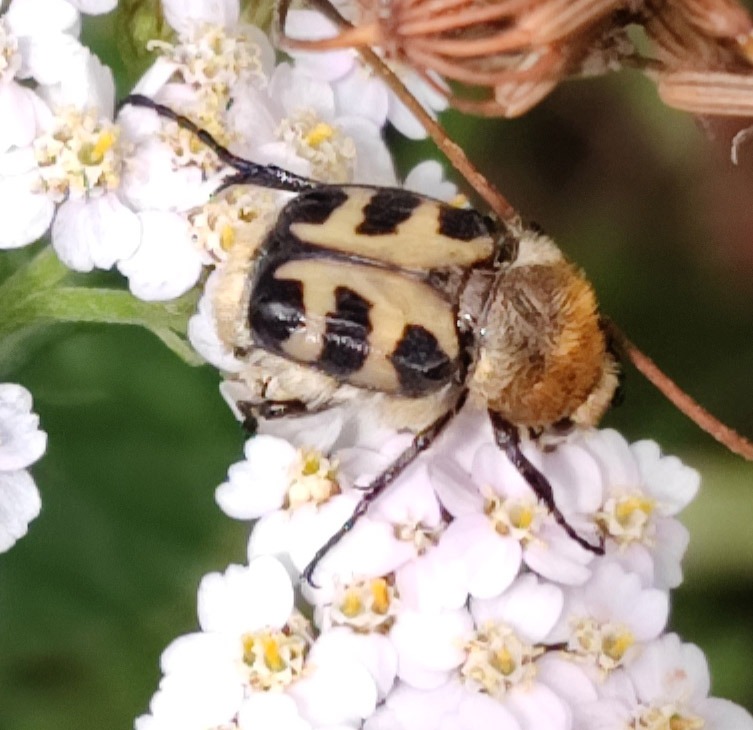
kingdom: Animalia
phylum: Arthropoda
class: Insecta
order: Coleoptera
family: Scarabaeidae
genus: Trichius
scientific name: Trichius gallicus
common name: Lille humlebille
